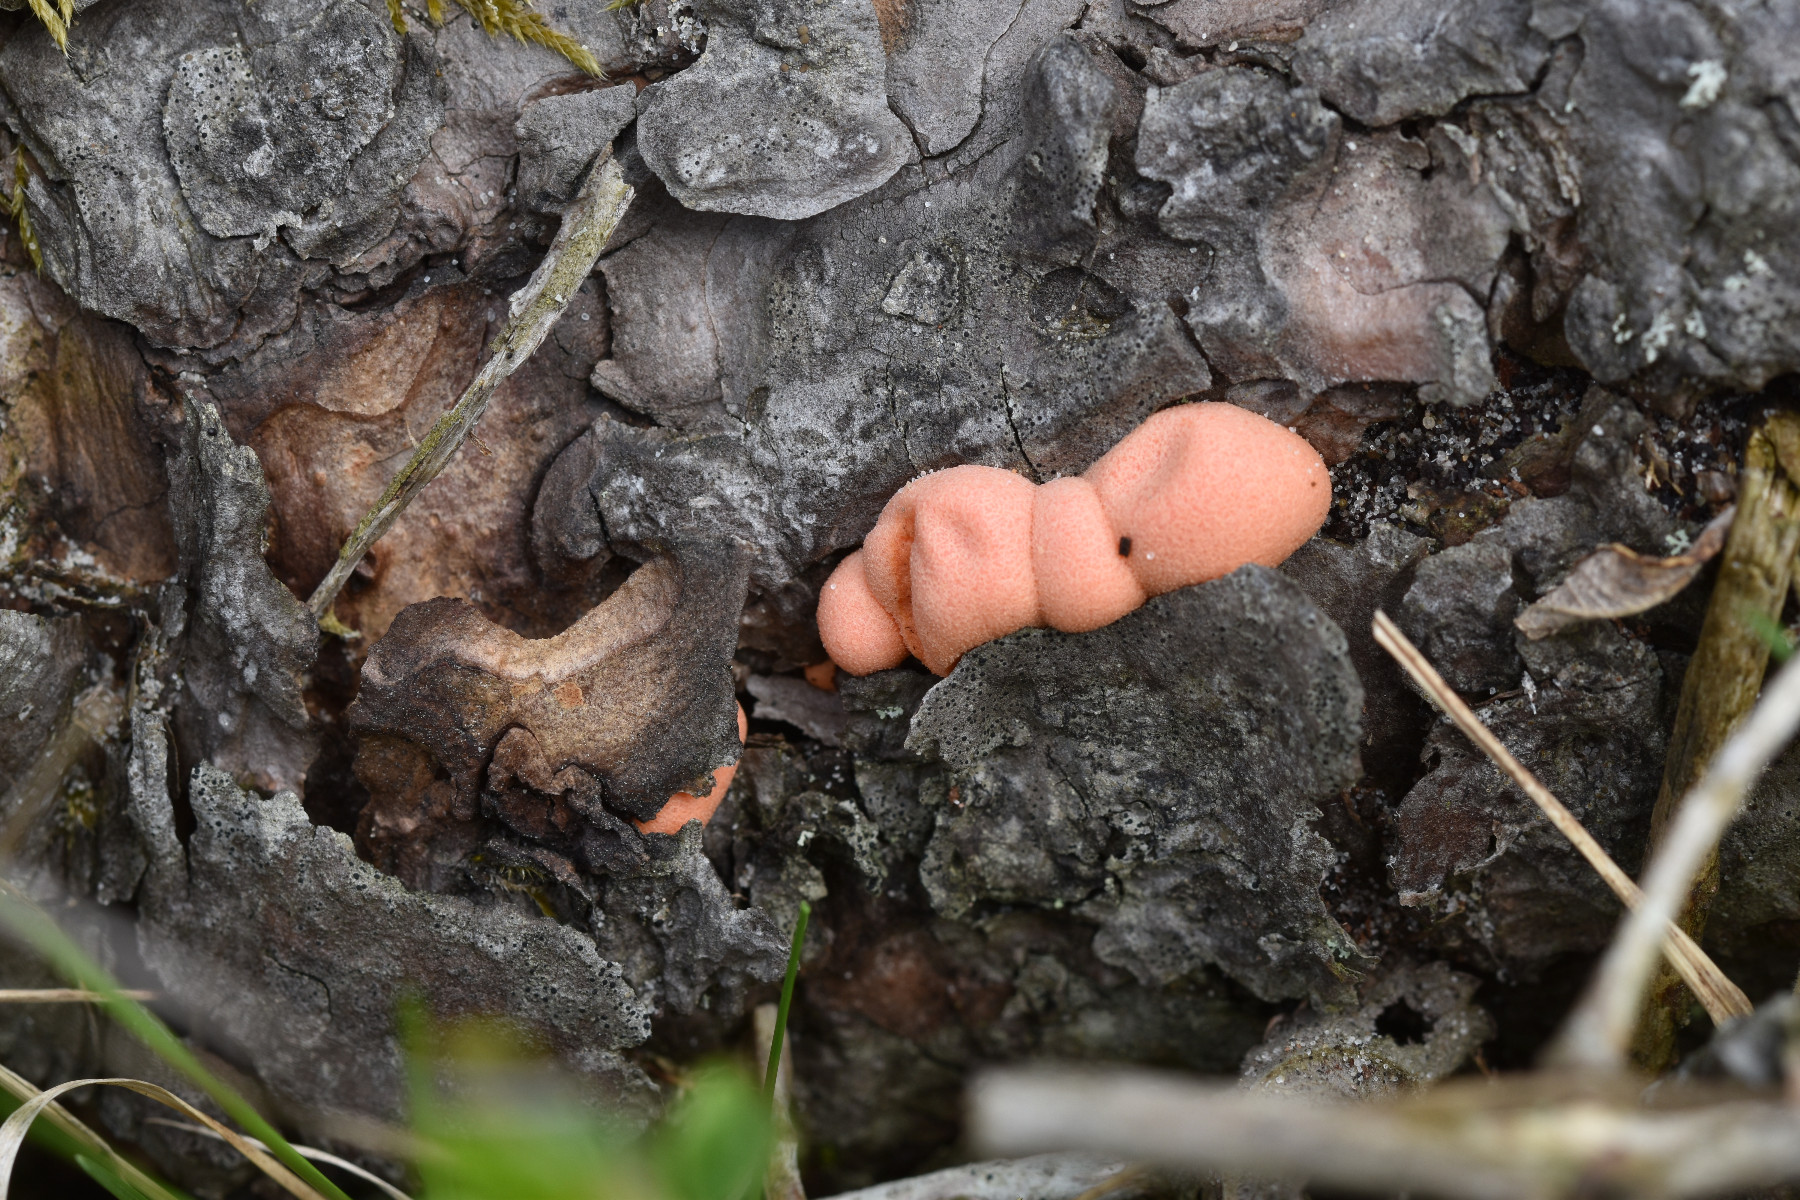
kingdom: Protozoa
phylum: Mycetozoa
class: Myxomycetes
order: Cribrariales
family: Tubiferaceae
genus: Lycogala
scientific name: Lycogala epidendrum
